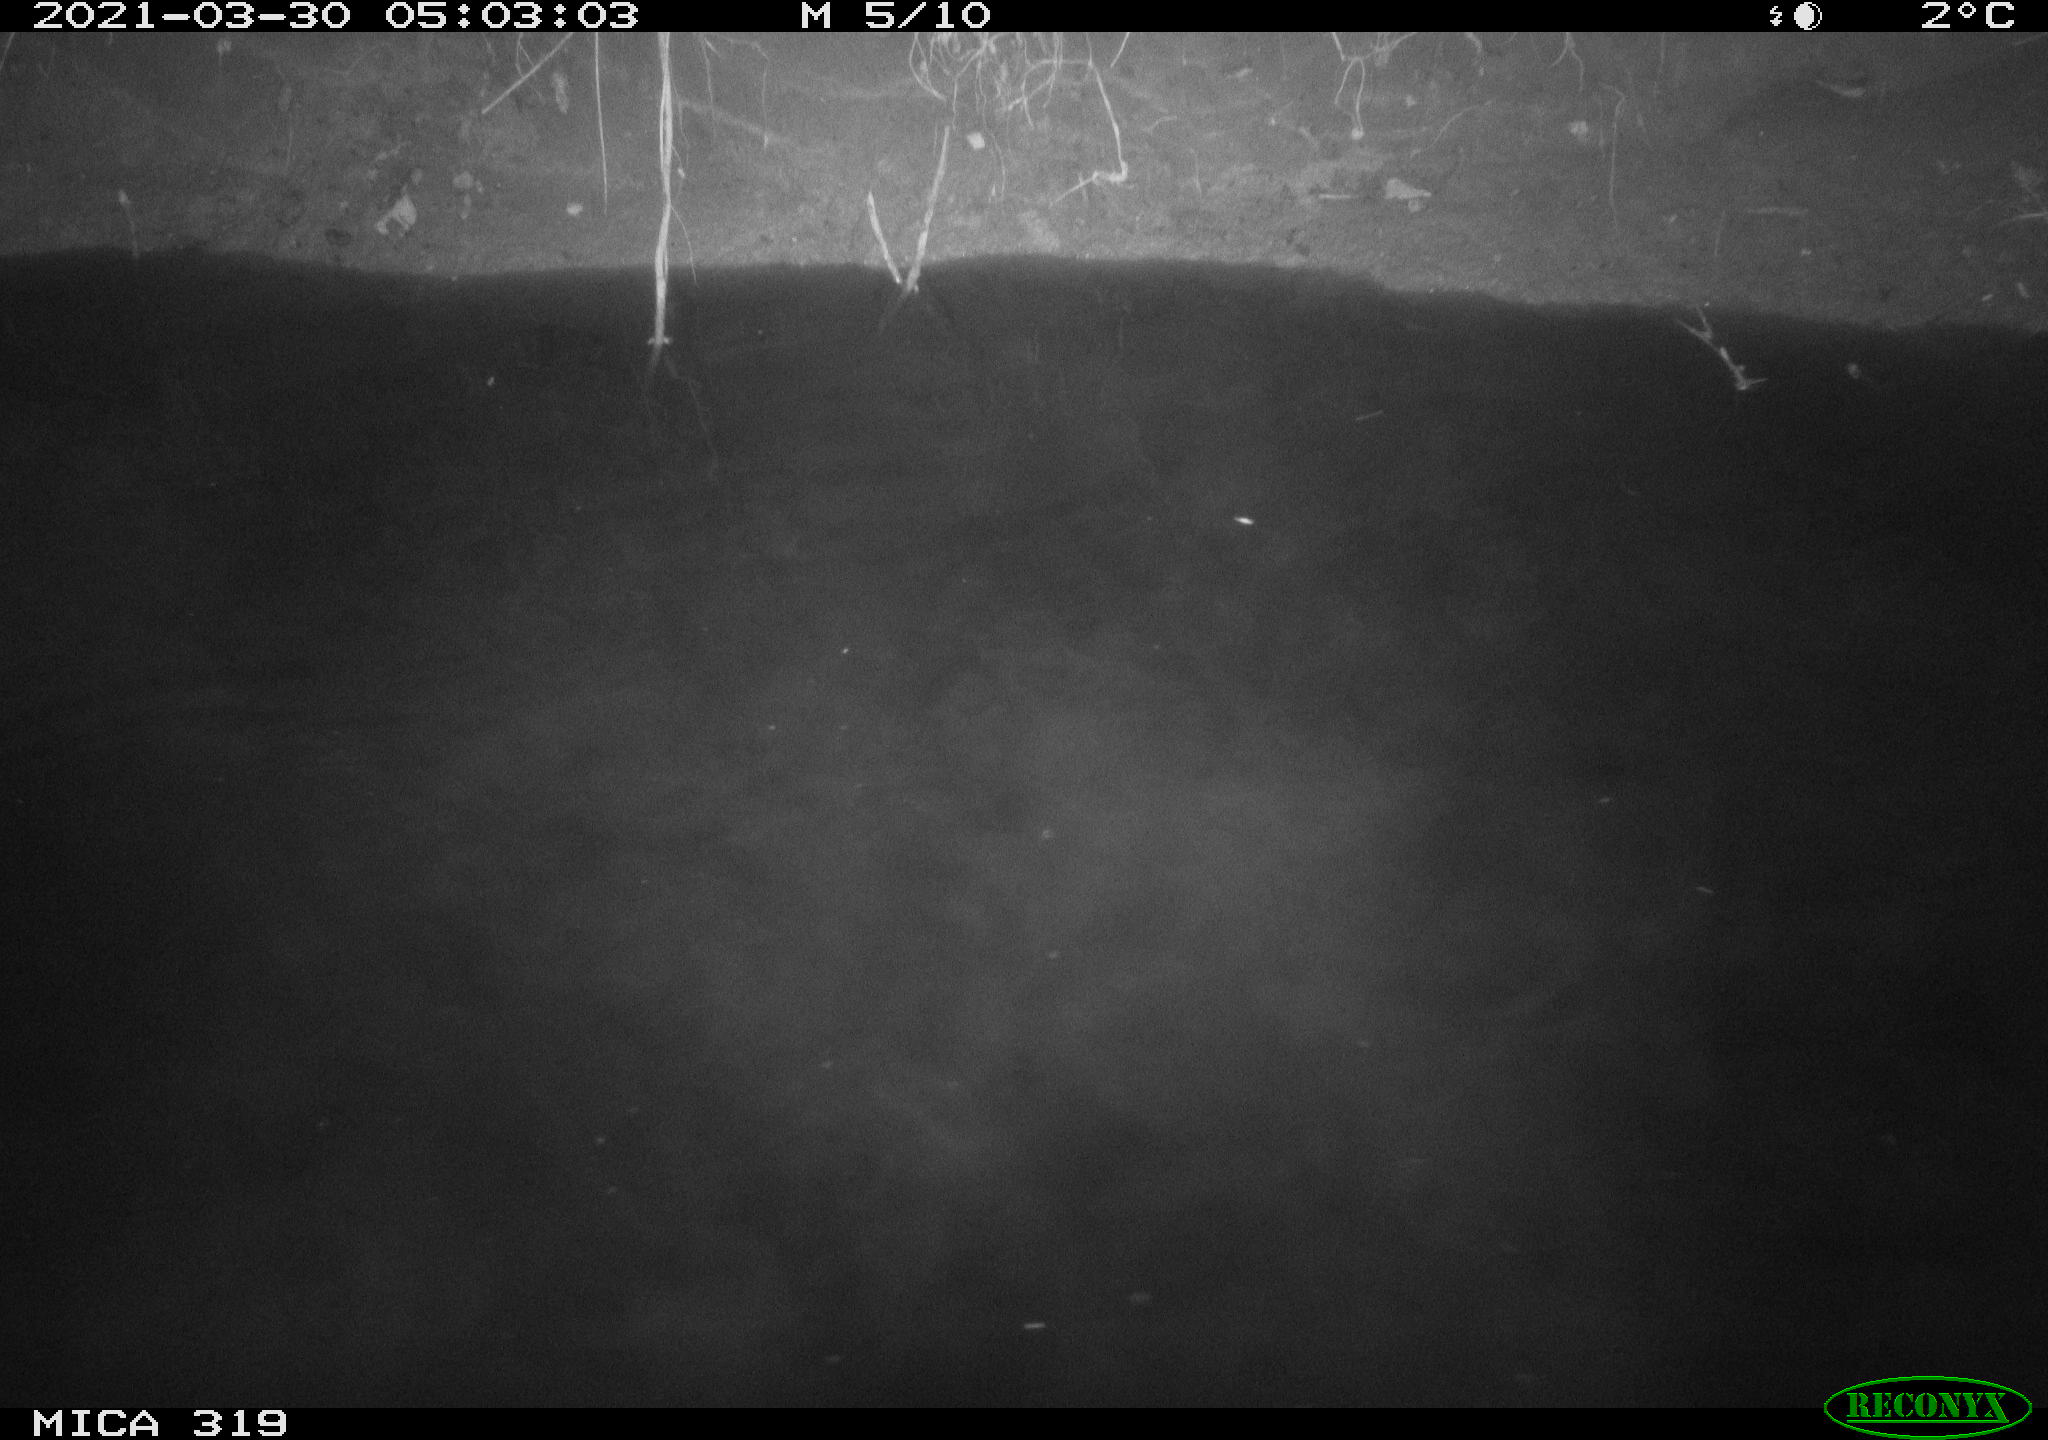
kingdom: Animalia
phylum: Chordata
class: Aves
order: Anseriformes
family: Anatidae
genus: Anas
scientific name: Anas platyrhynchos
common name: Mallard
